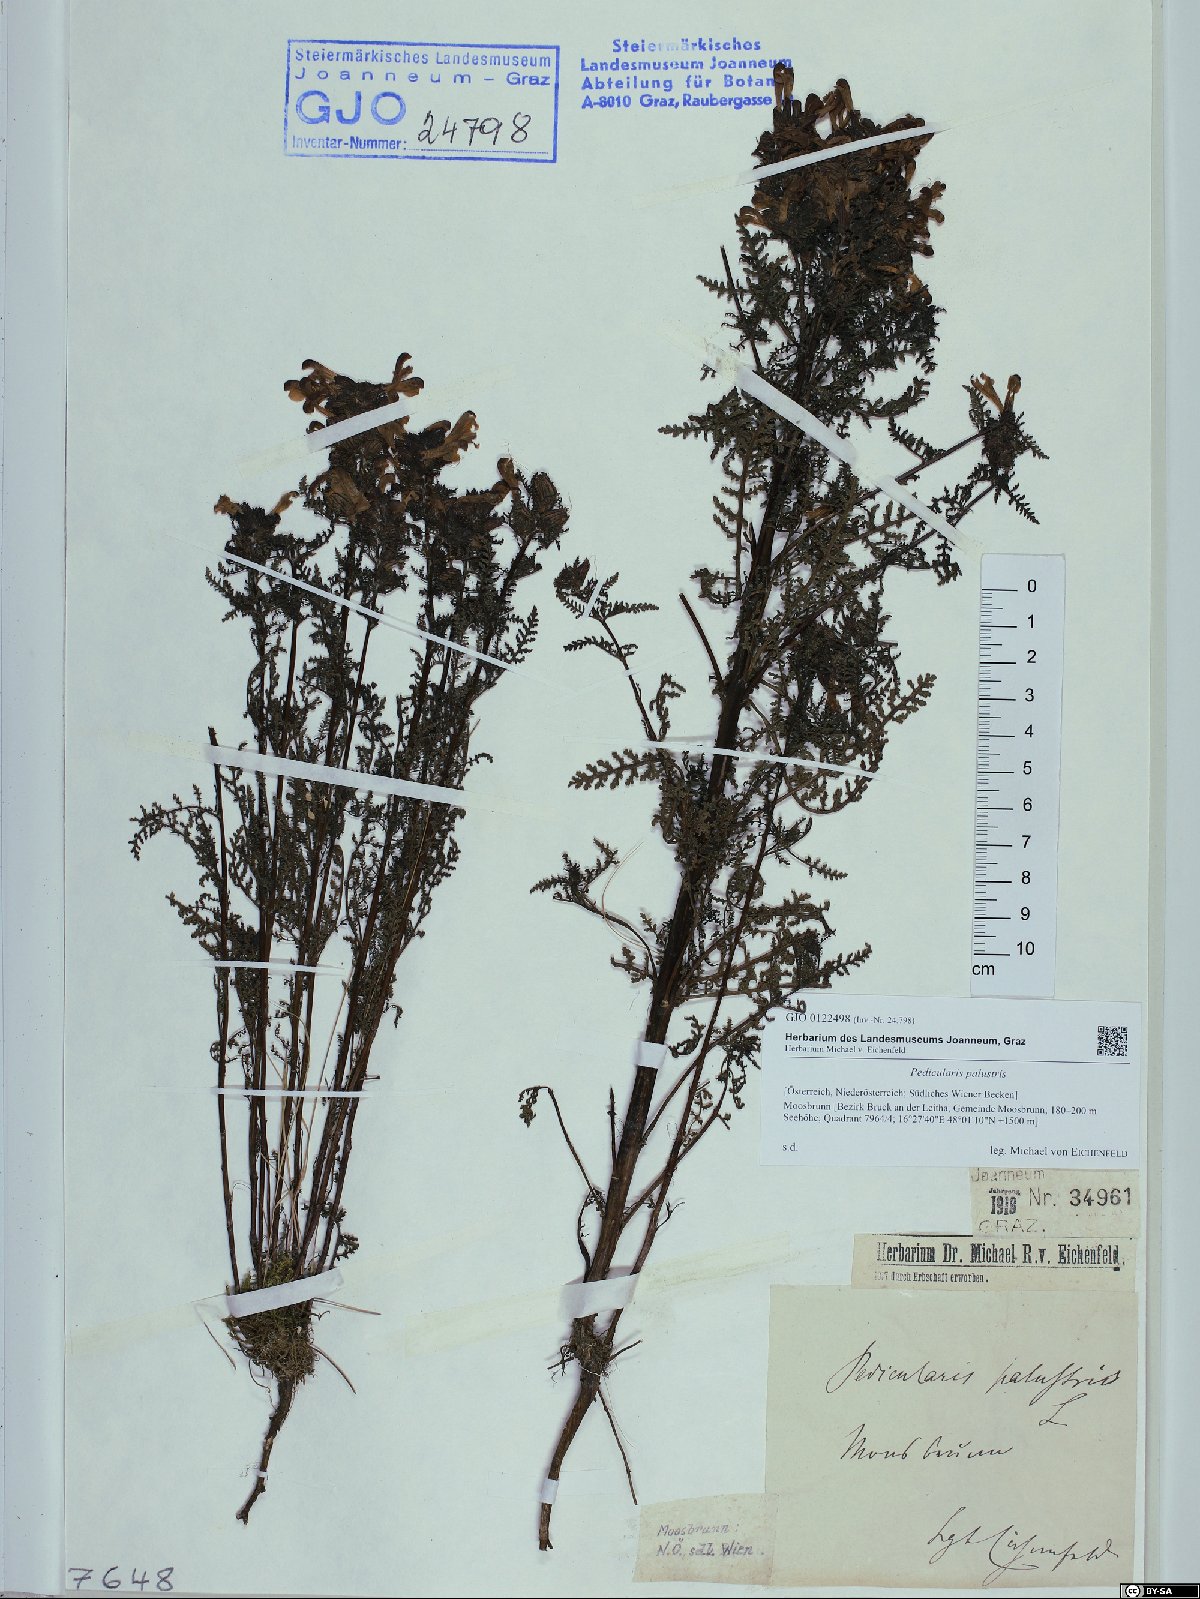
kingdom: Plantae
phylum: Tracheophyta
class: Magnoliopsida
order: Lamiales
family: Orobanchaceae
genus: Pedicularis
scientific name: Pedicularis palustris
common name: Marsh lousewort
